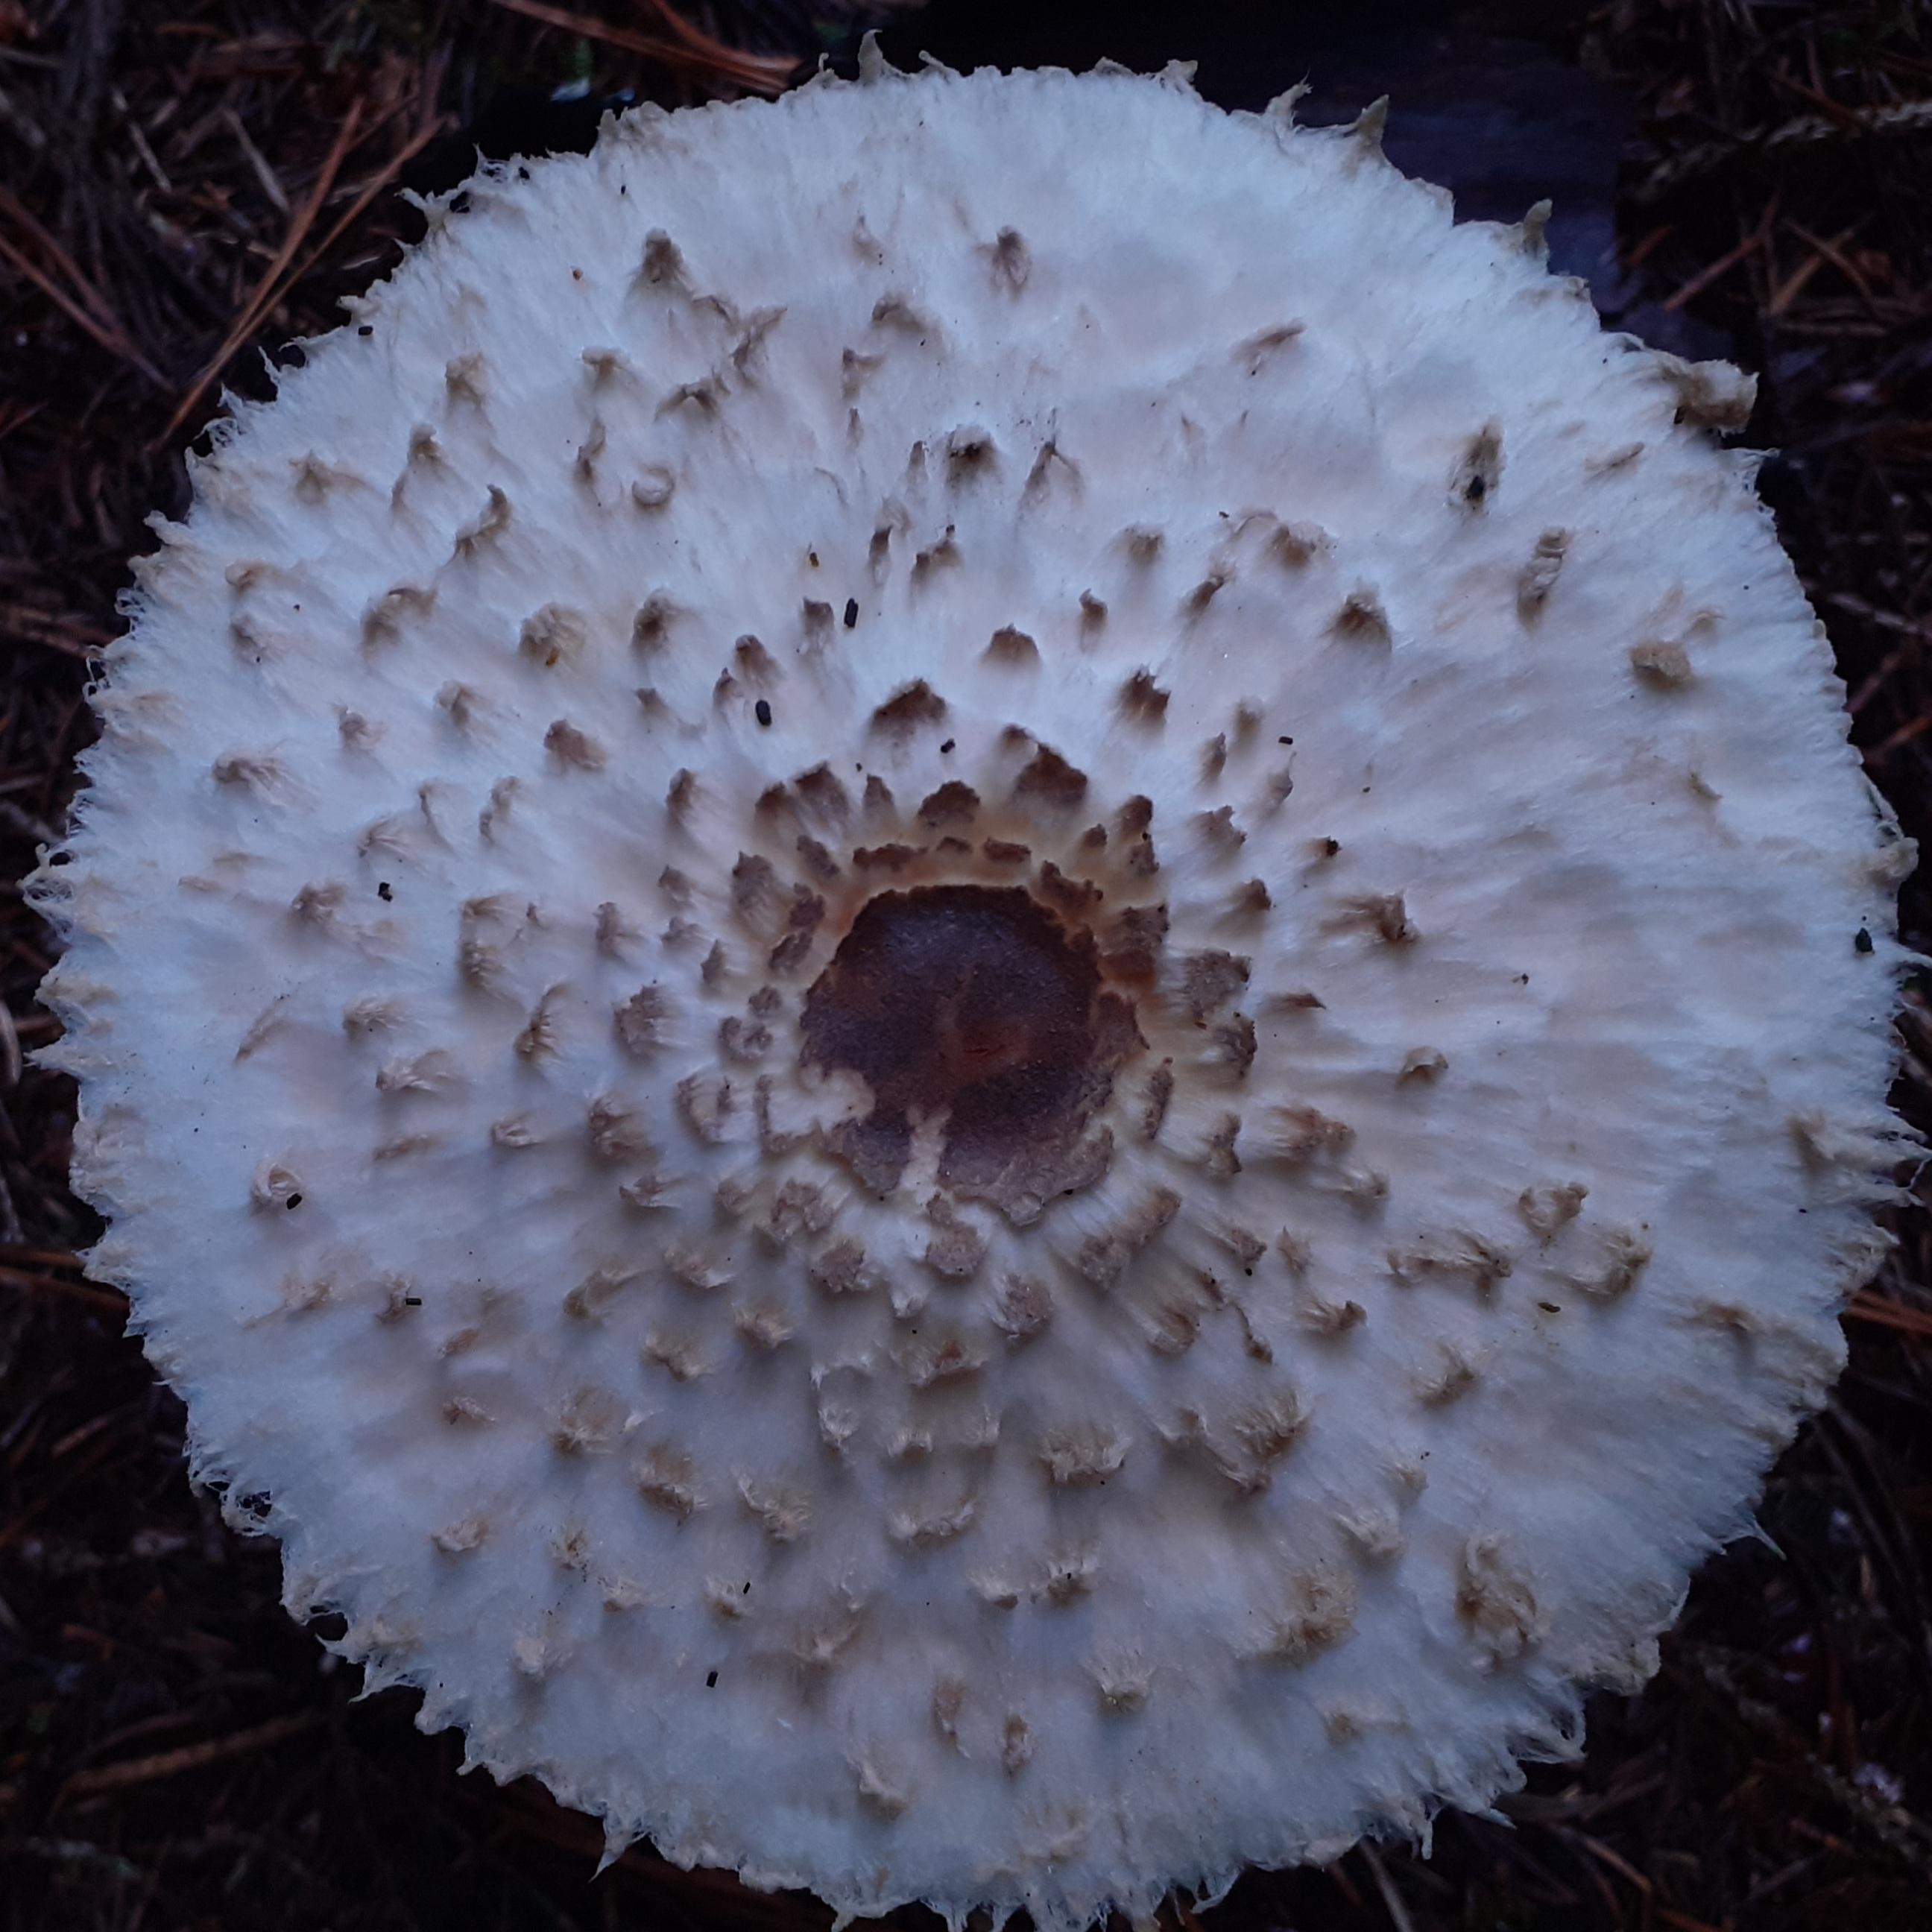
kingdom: Fungi
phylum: Basidiomycota
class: Agaricomycetes
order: Agaricales
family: Agaricaceae
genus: Leucoagaricus
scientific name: Leucoagaricus nympharum
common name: gran-silkehat
